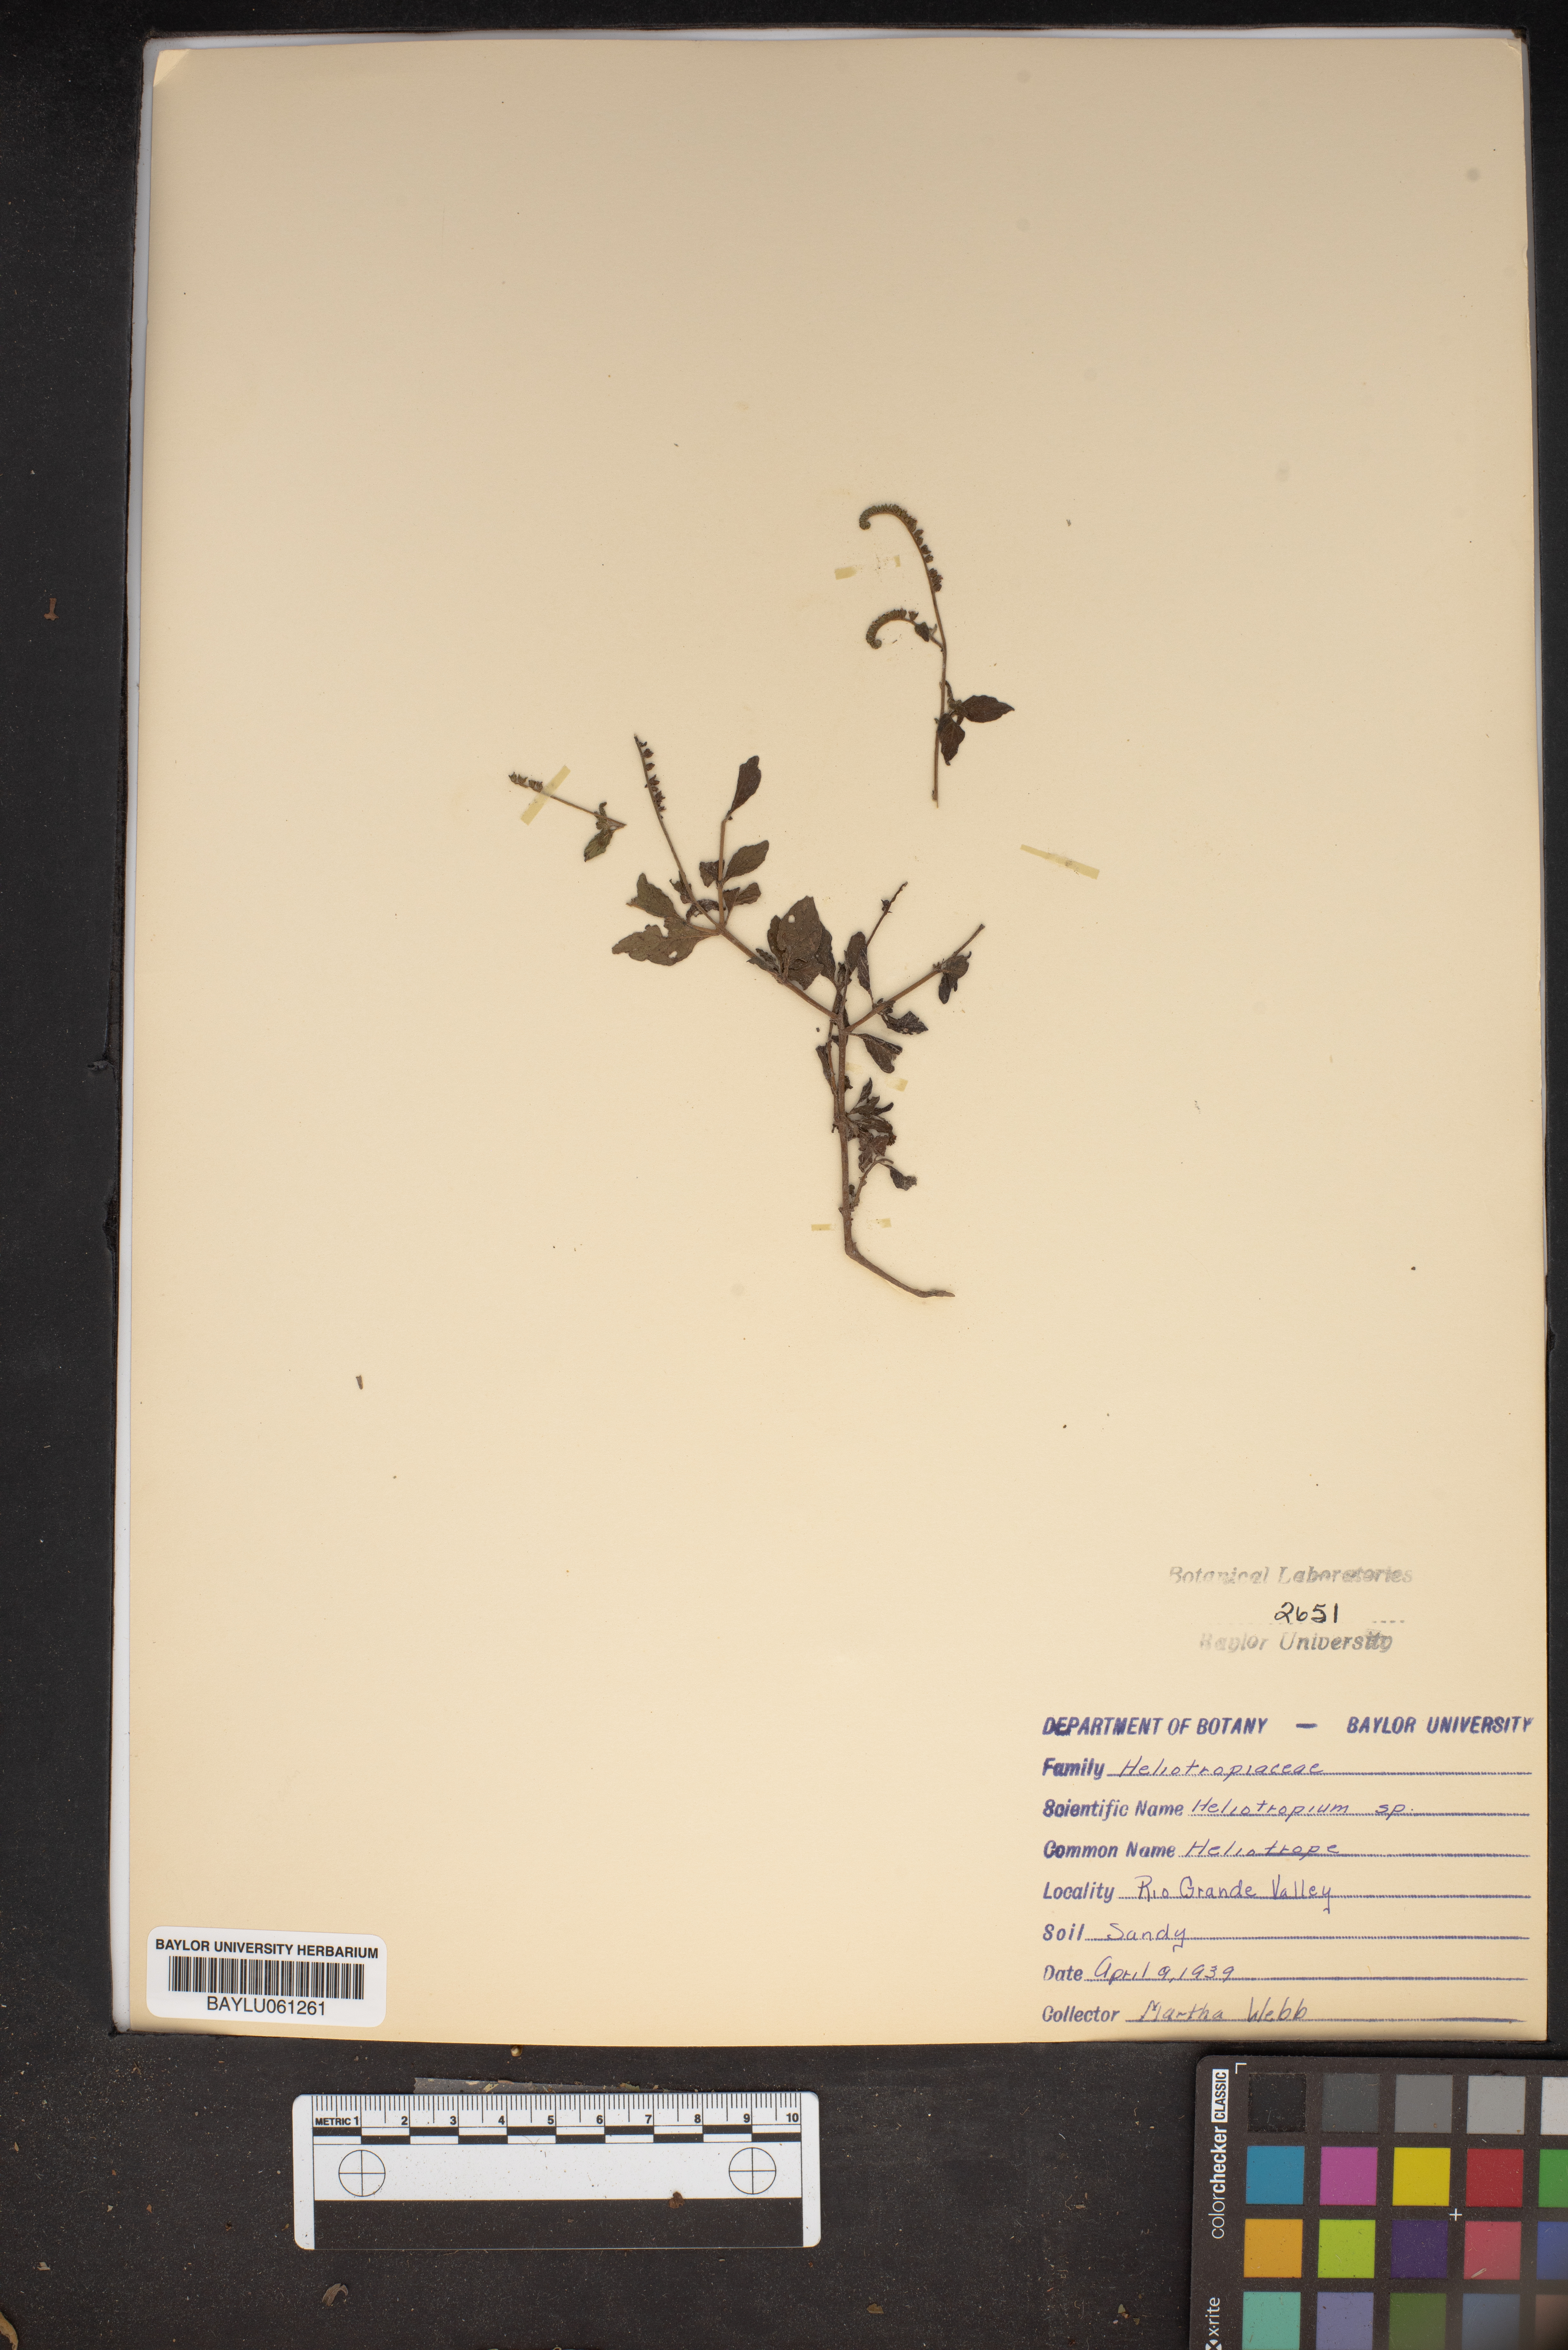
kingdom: Plantae
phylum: Tracheophyta
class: Magnoliopsida
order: Boraginales
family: Heliotropiaceae
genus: Heliotropium
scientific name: Heliotropium
